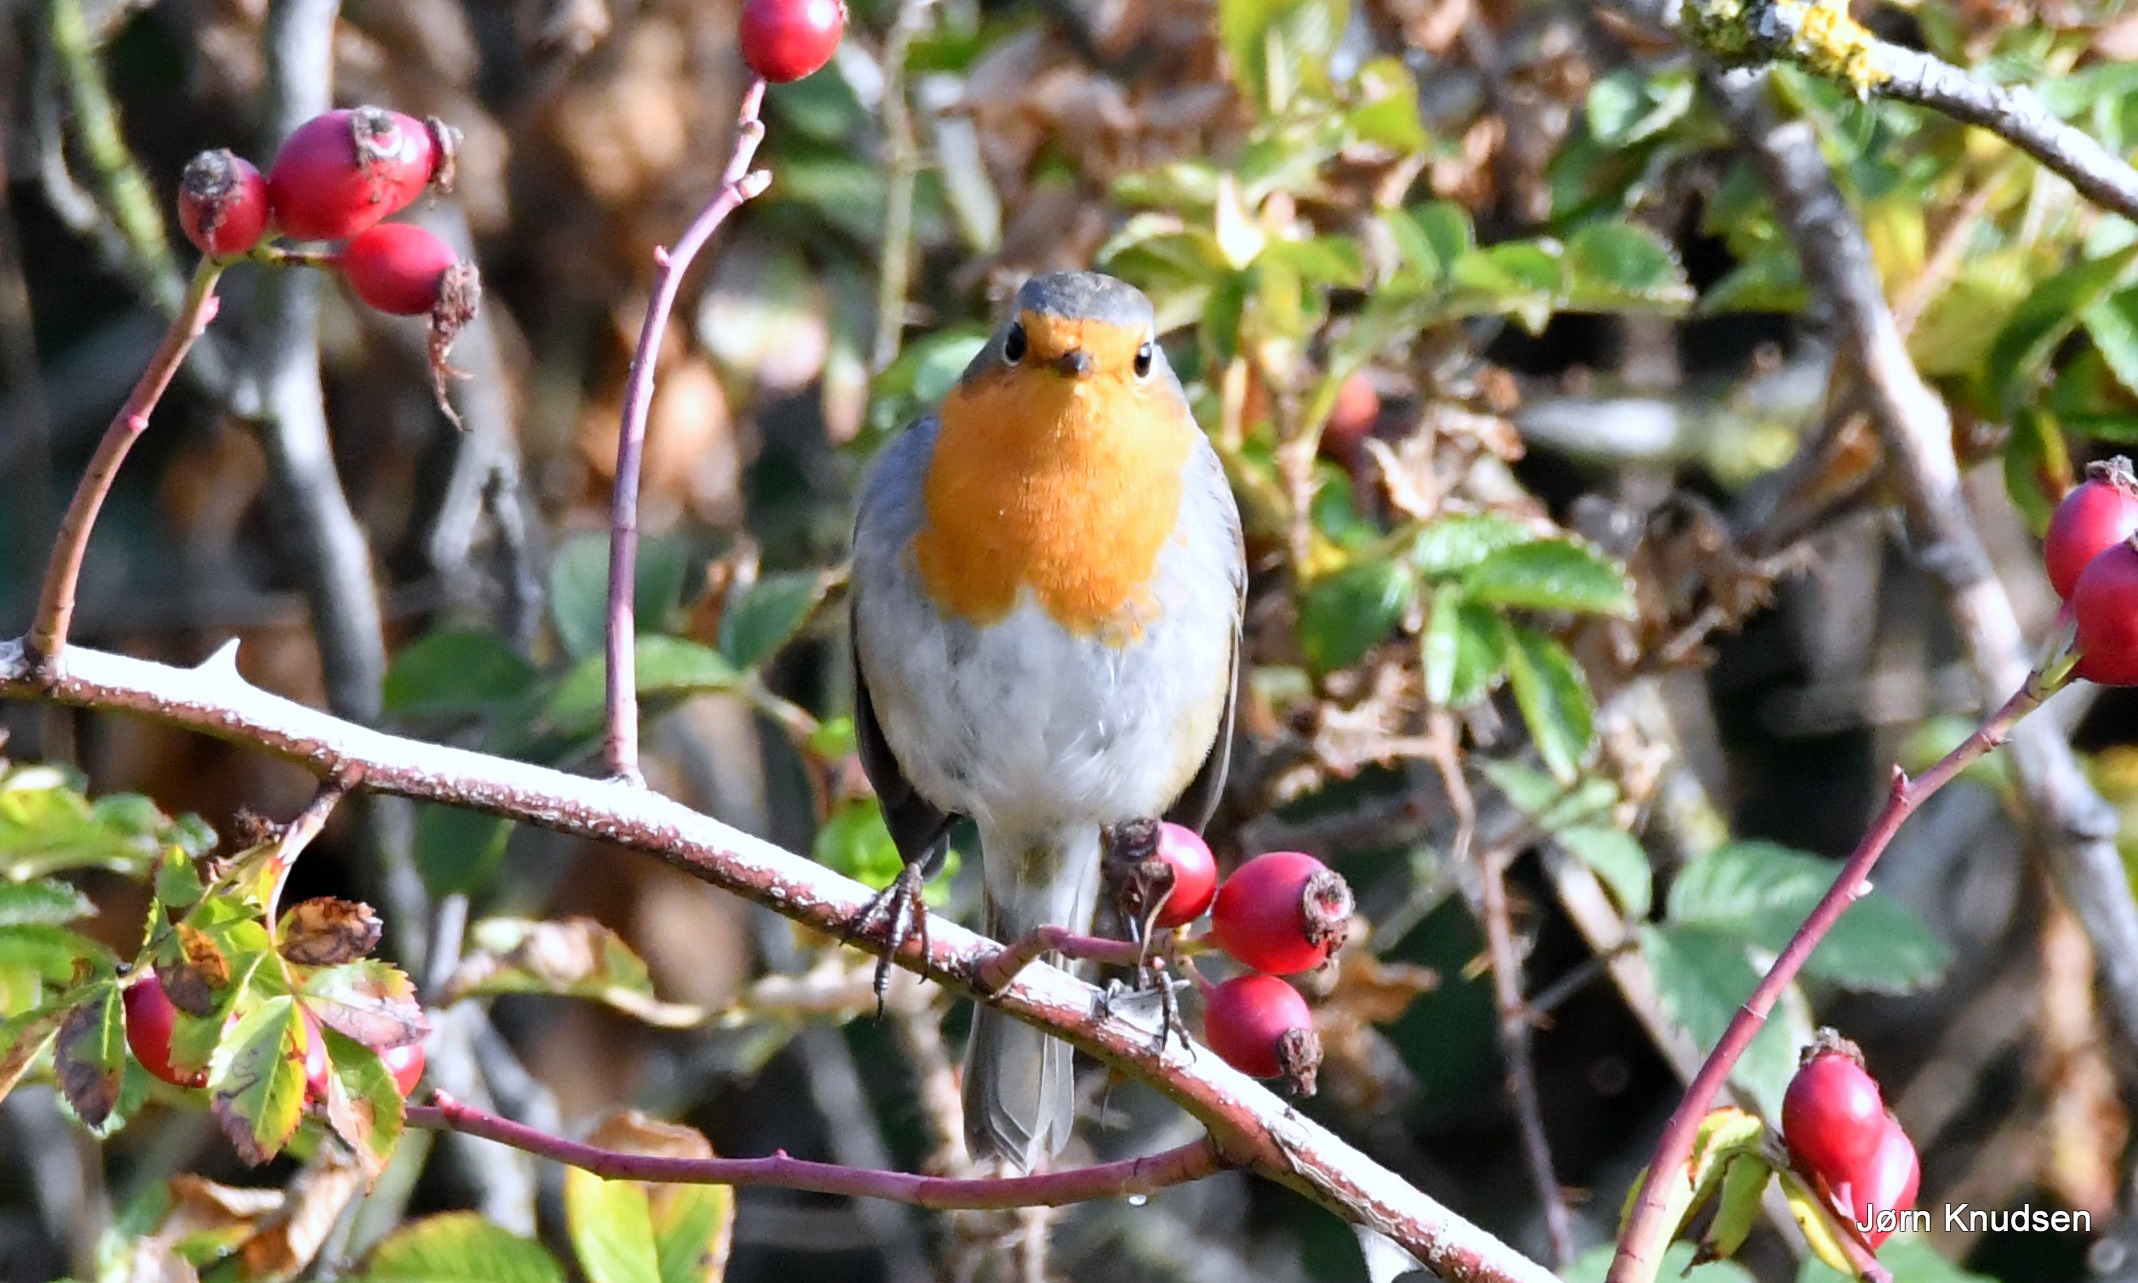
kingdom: Animalia
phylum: Chordata
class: Aves
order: Passeriformes
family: Muscicapidae
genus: Erithacus
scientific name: Erithacus rubecula
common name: Rødhals/rødkælk
